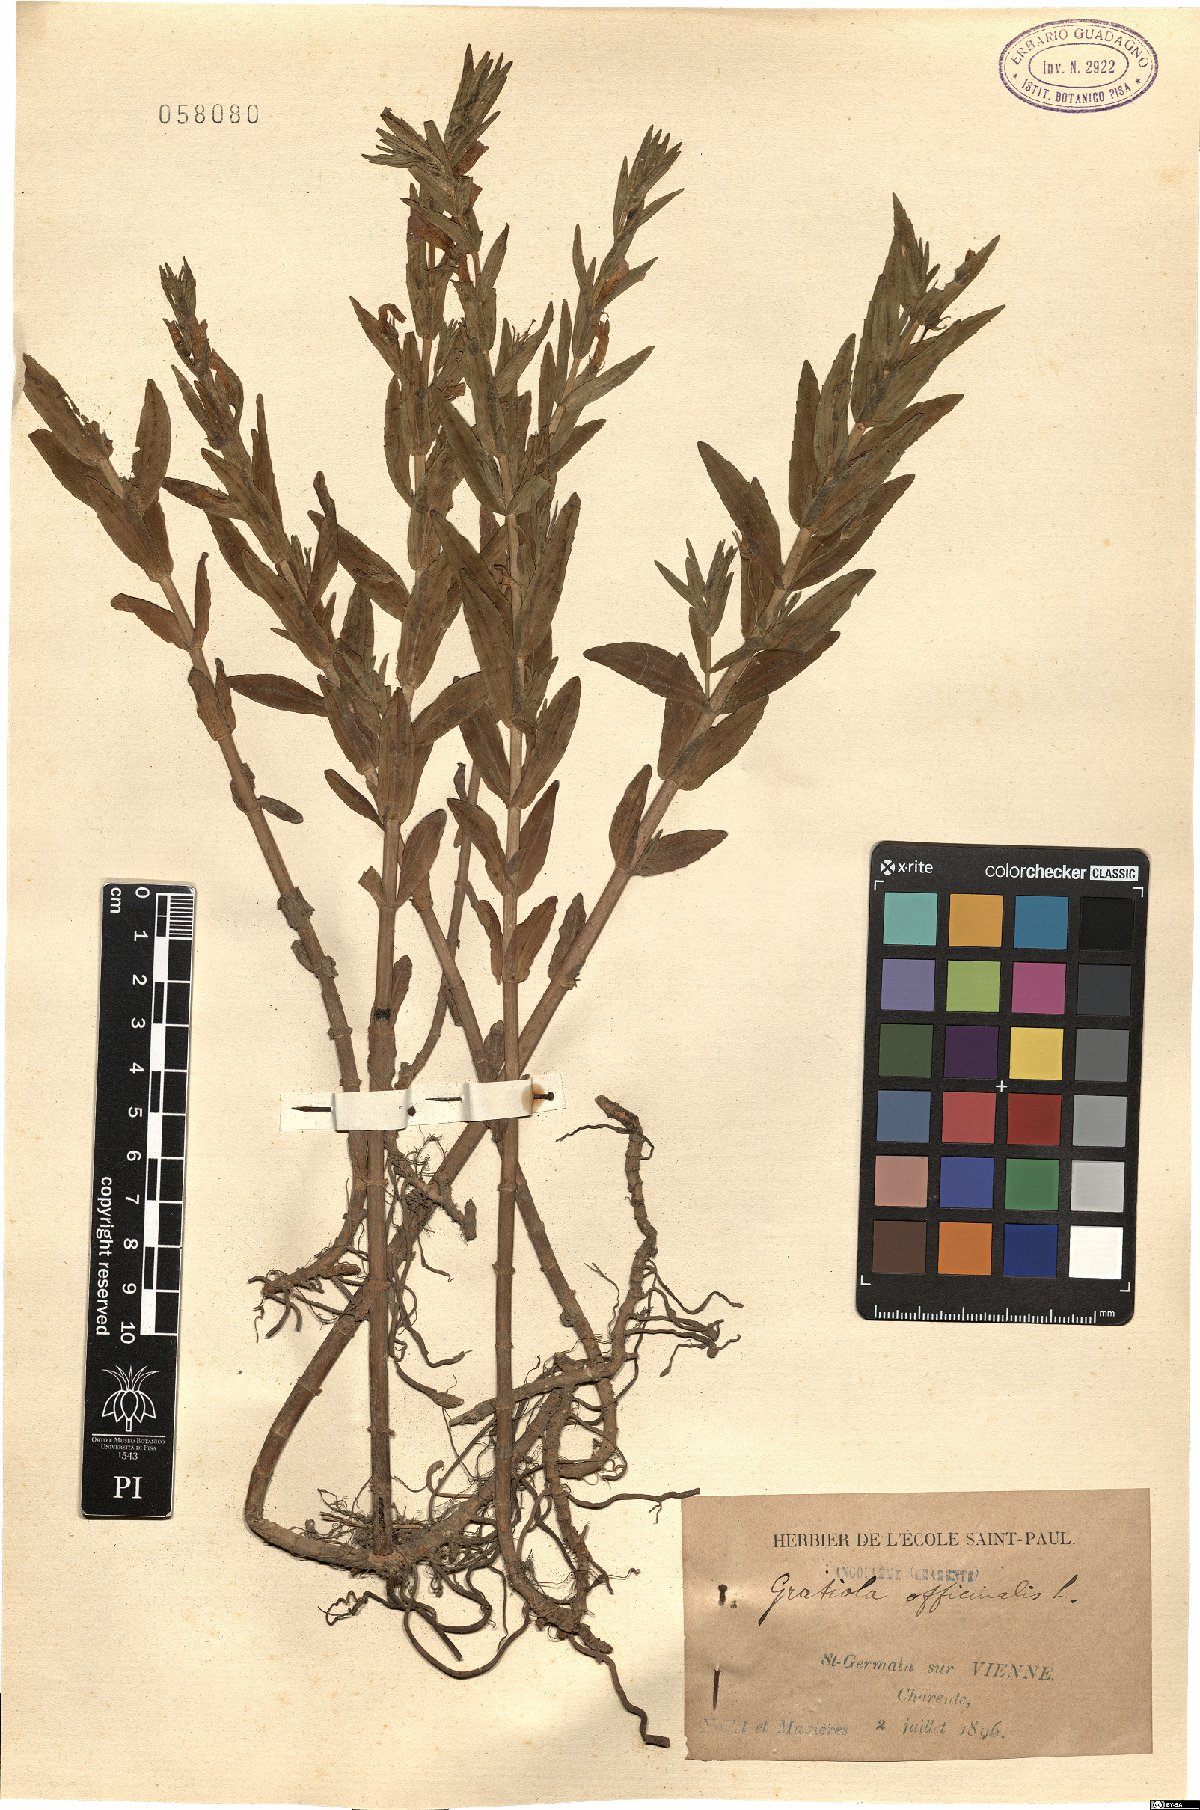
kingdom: Plantae
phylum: Tracheophyta
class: Magnoliopsida
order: Lamiales
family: Plantaginaceae
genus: Gratiola
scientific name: Gratiola officinalis
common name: Gratiola
